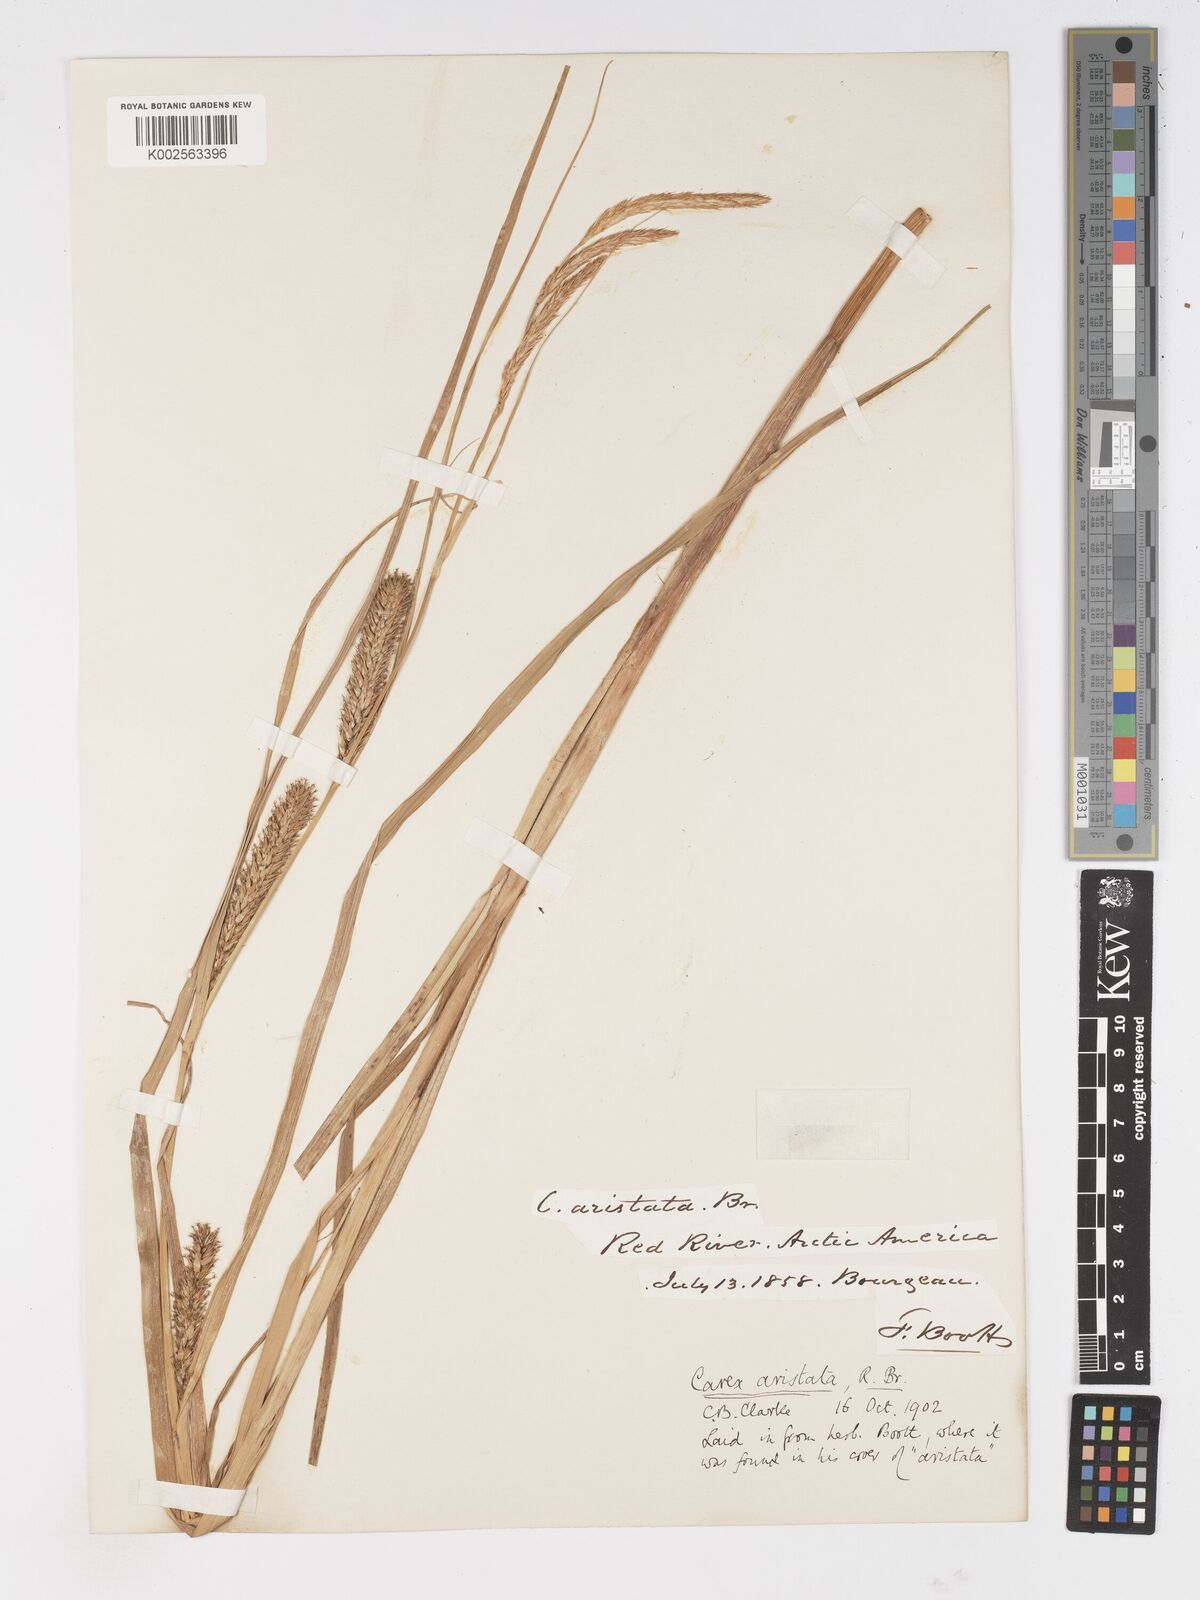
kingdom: Plantae
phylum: Tracheophyta
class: Liliopsida
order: Poales
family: Cyperaceae
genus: Carex
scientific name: Carex atherodes
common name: Wheat sedge
